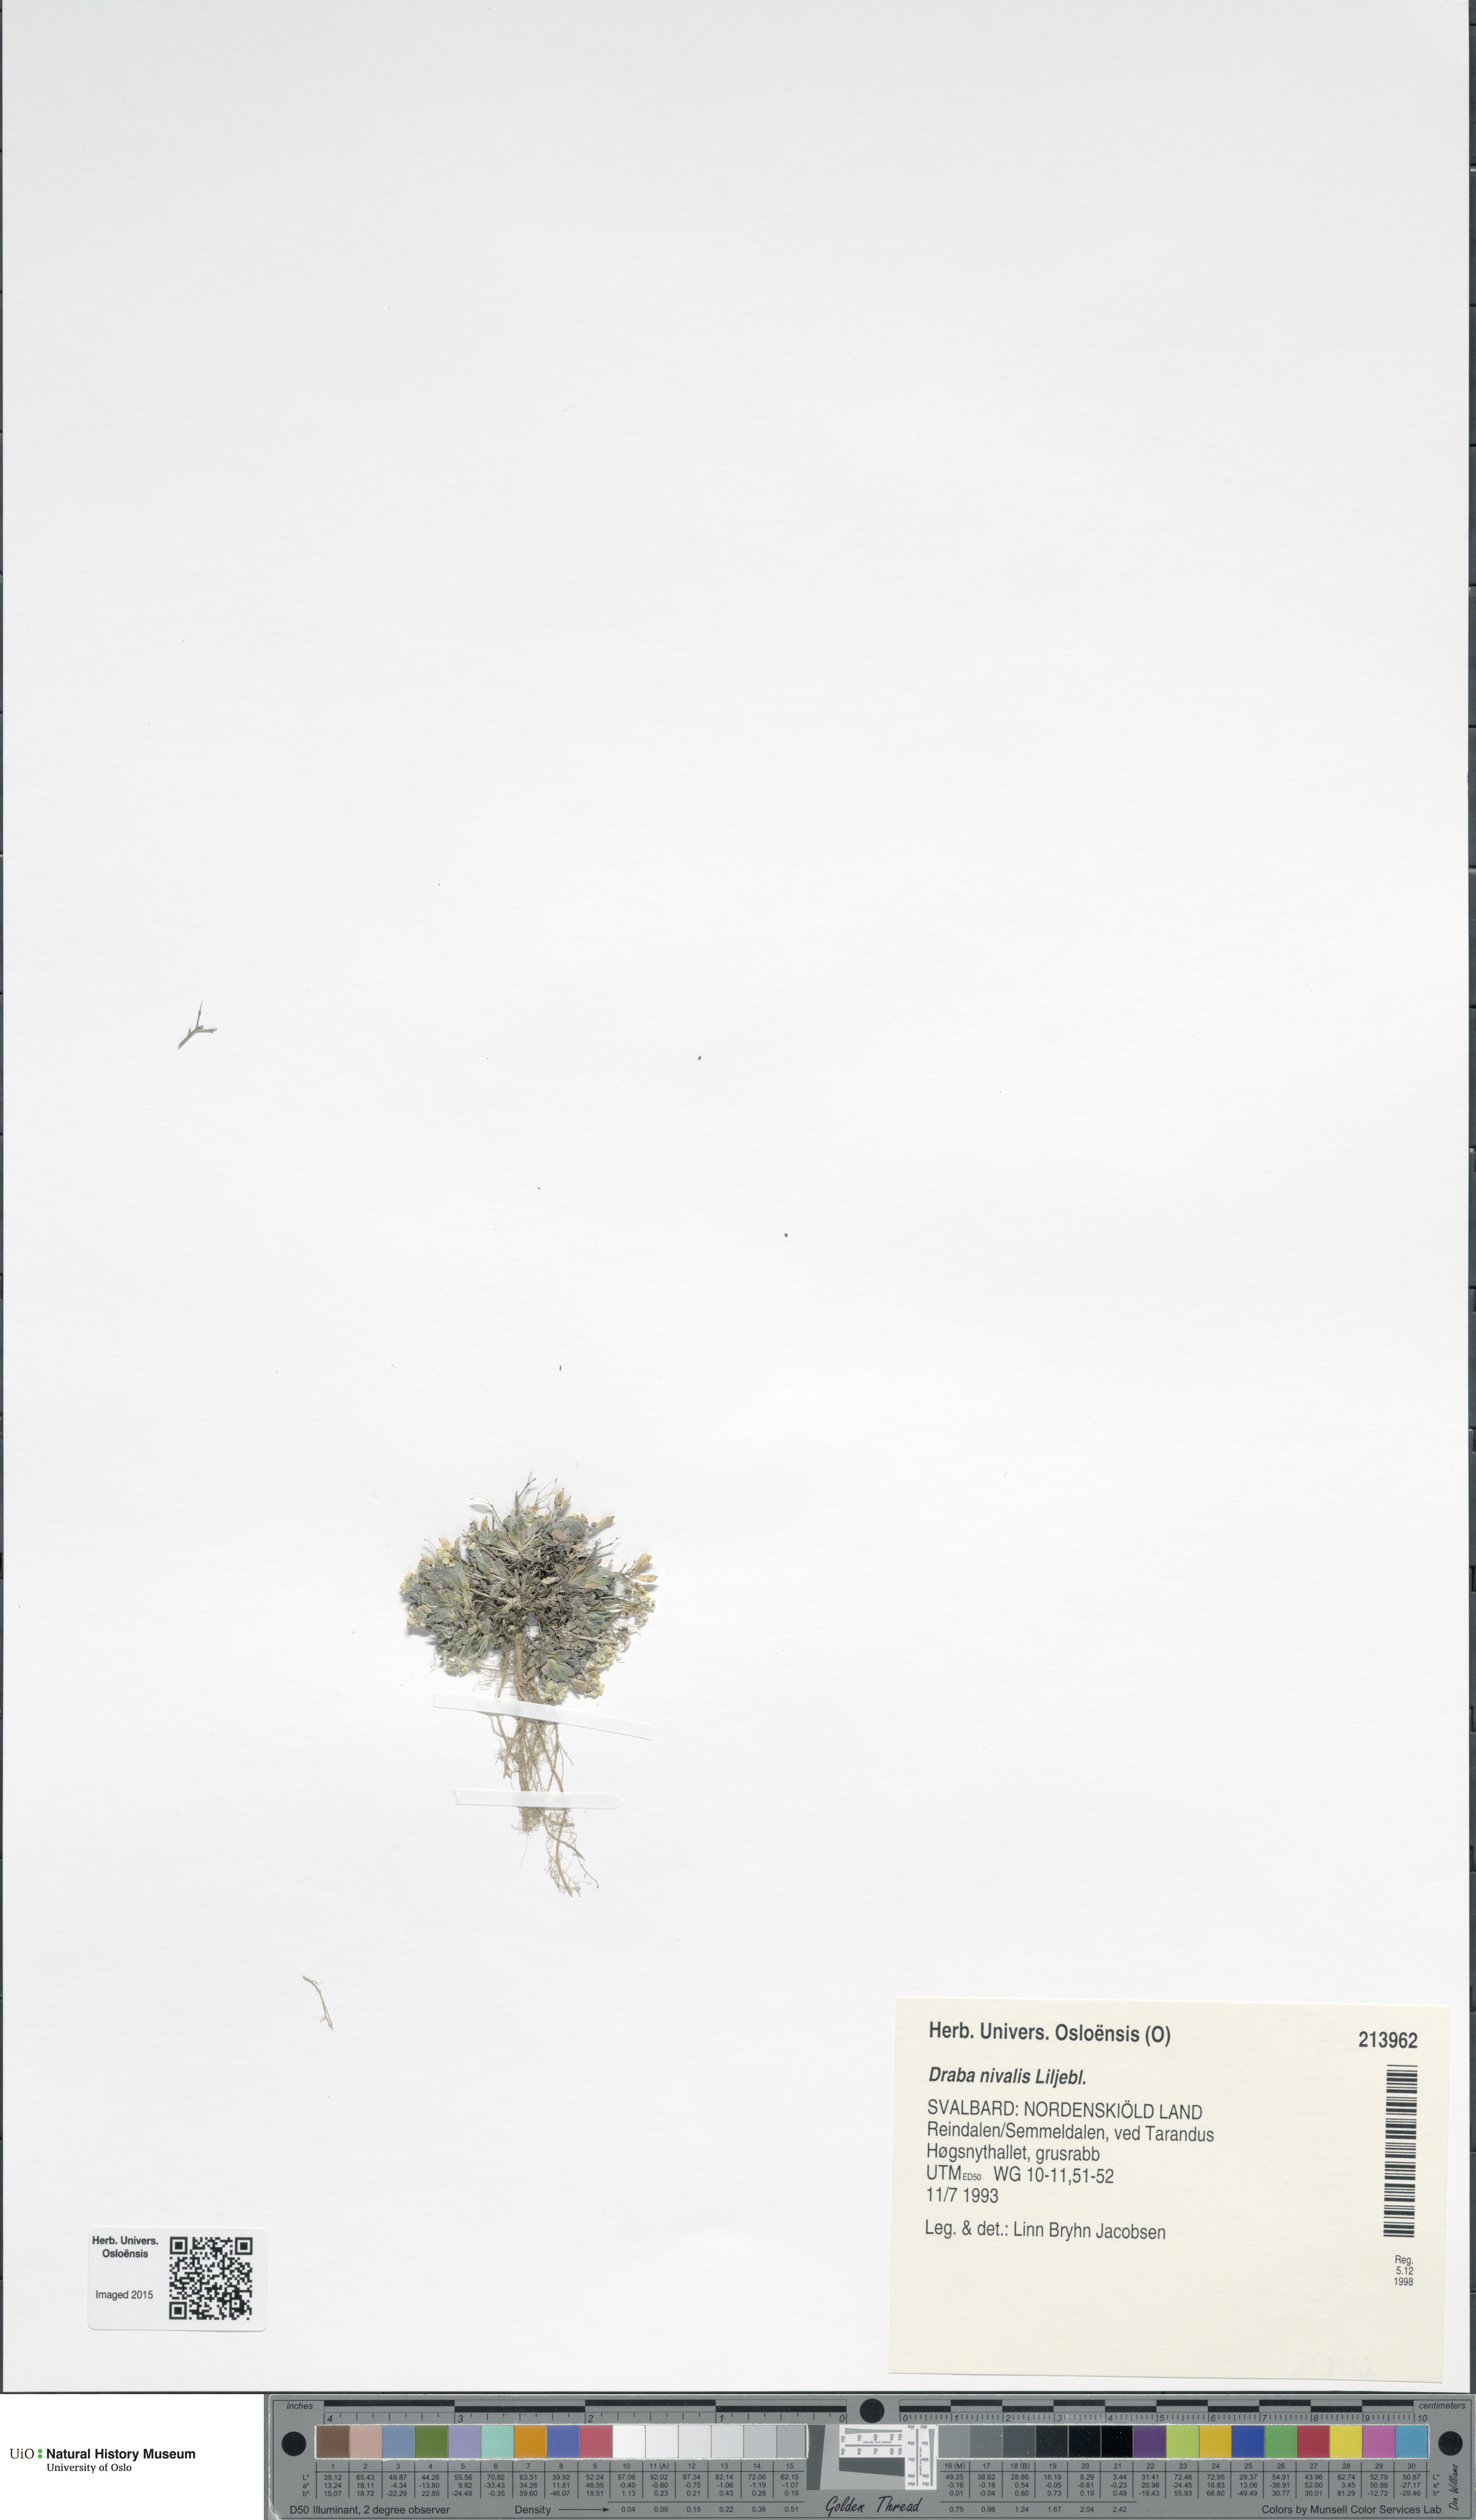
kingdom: Plantae
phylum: Tracheophyta
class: Magnoliopsida
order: Brassicales
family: Brassicaceae
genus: Draba
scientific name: Draba nivalis
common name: Snow draba
